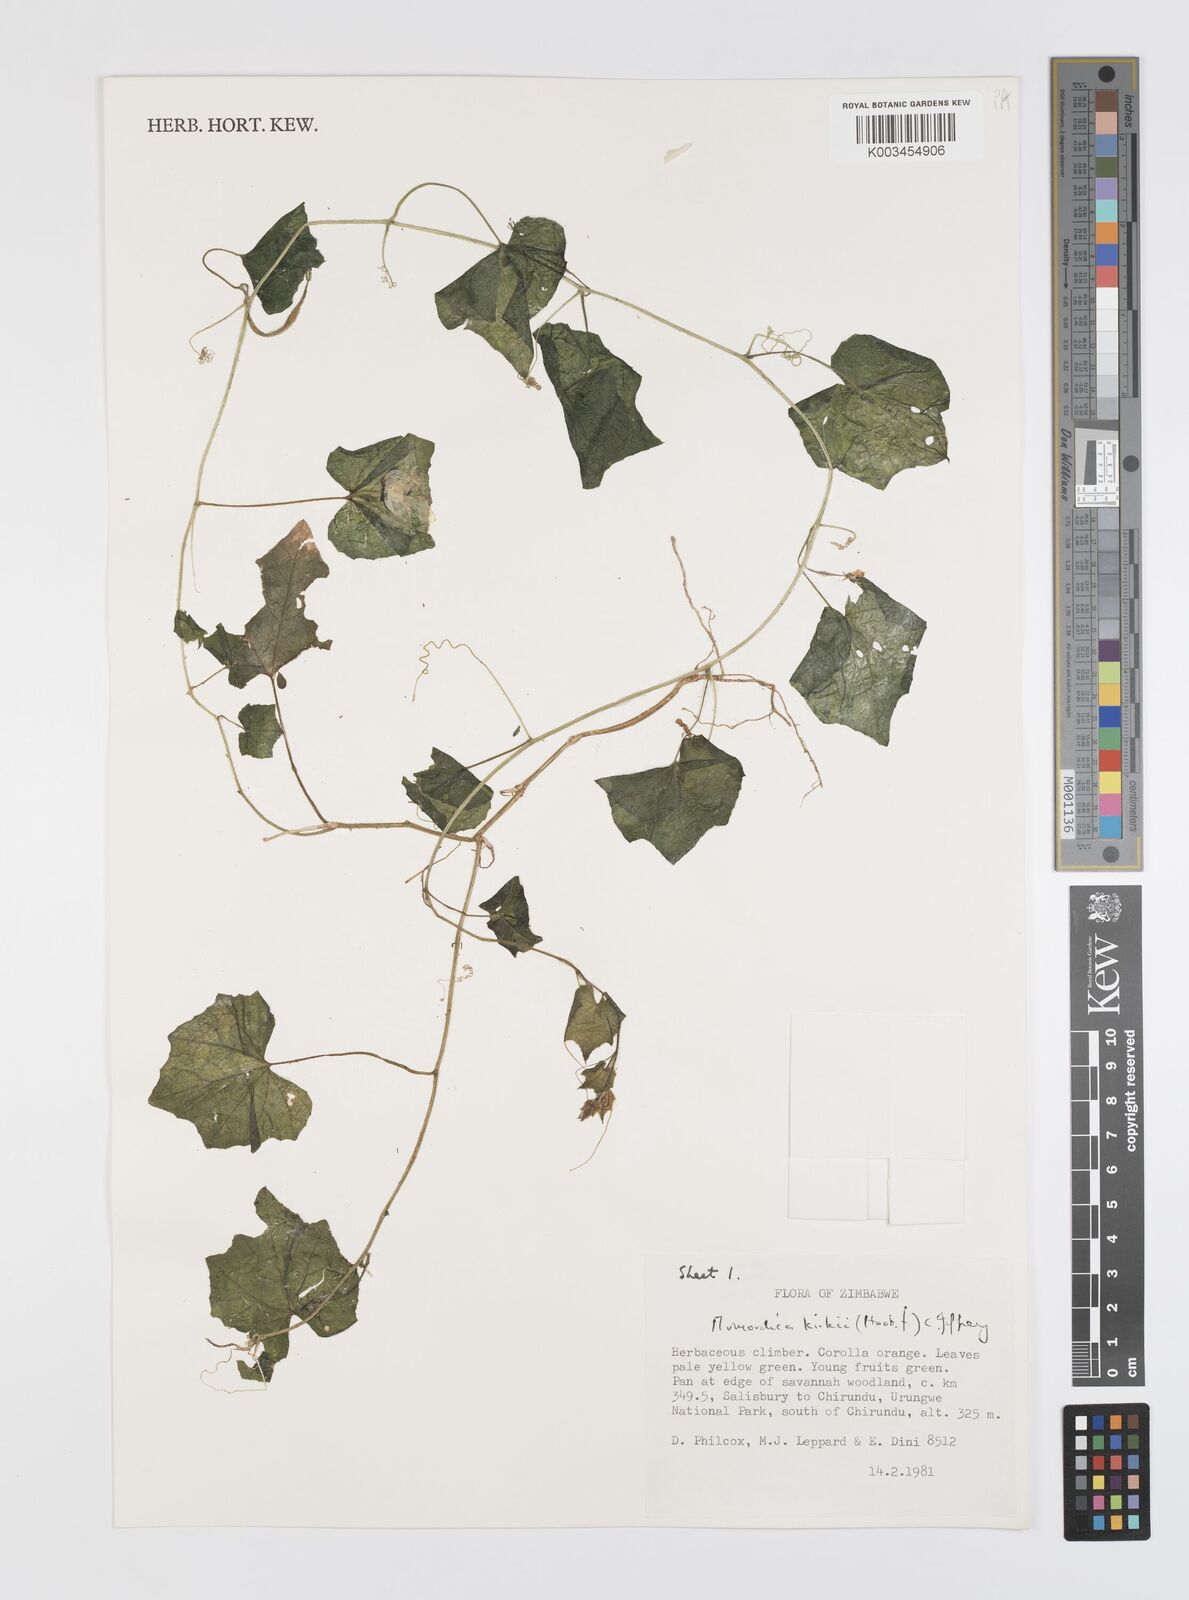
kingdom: Plantae
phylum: Tracheophyta
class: Magnoliopsida
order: Cucurbitales
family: Cucurbitaceae
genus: Momordica
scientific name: Momordica kirkii
